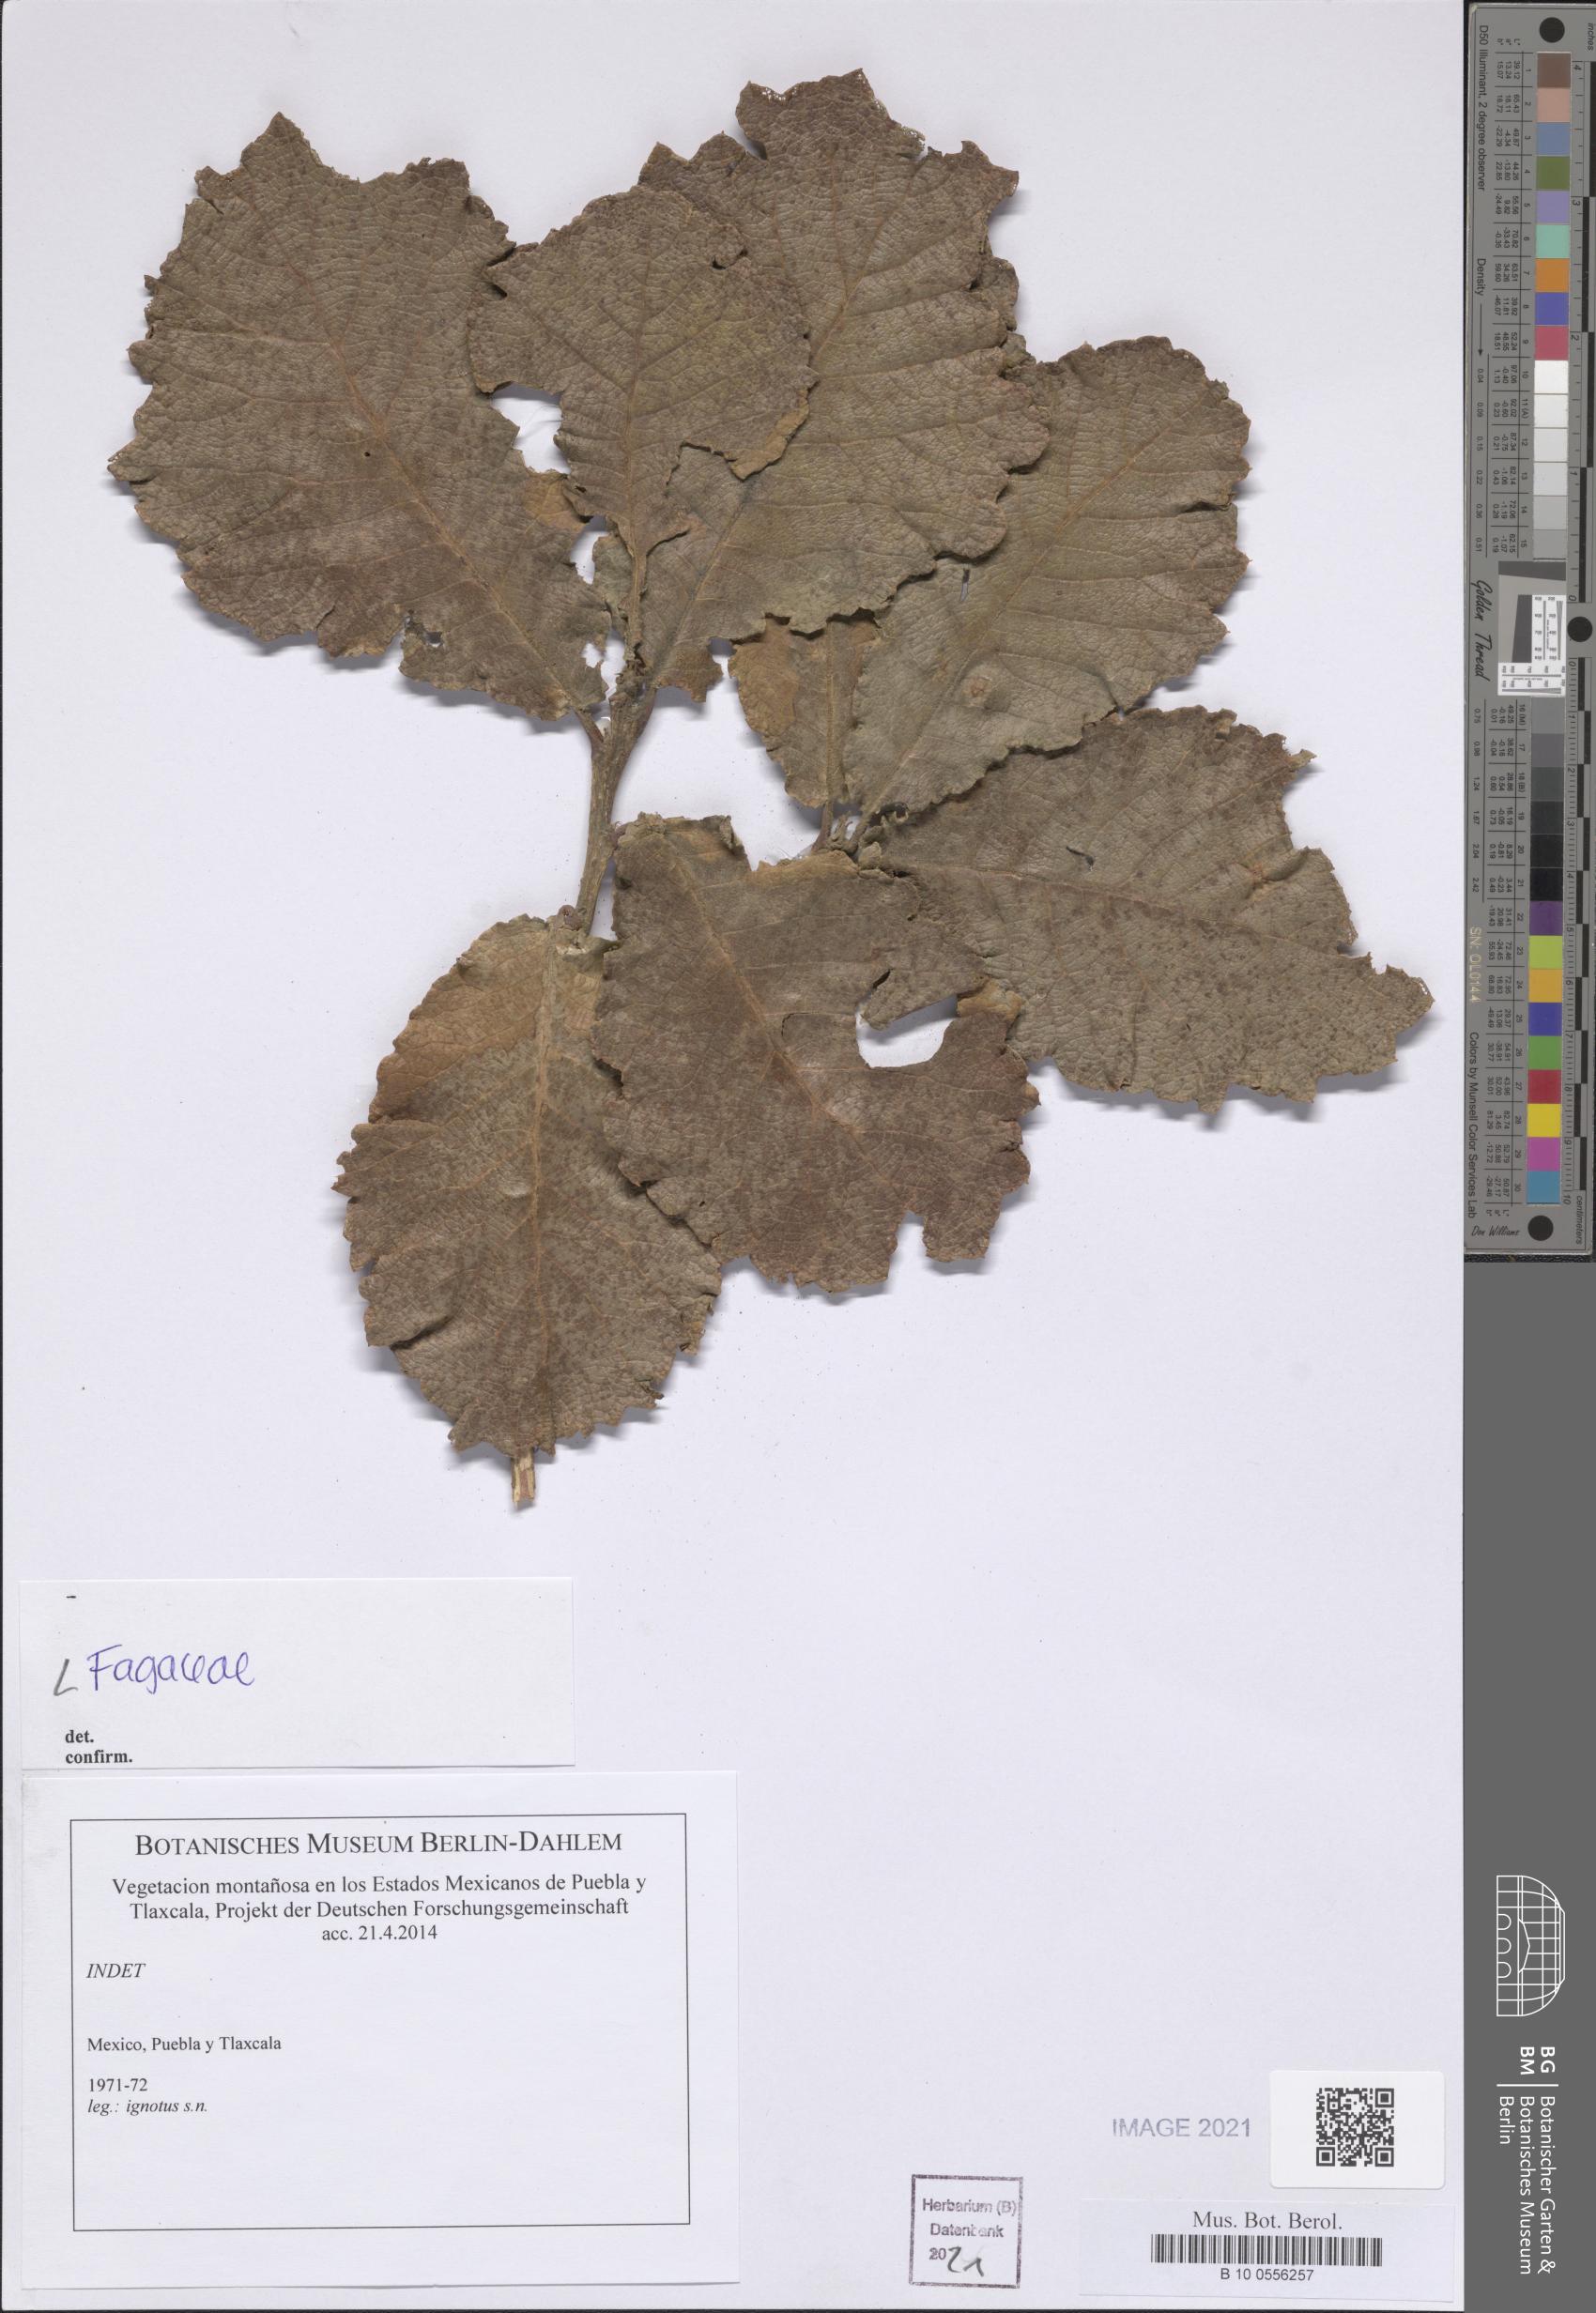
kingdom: Plantae
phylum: Tracheophyta
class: Magnoliopsida
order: Fagales
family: Fagaceae
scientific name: Fagaceae
